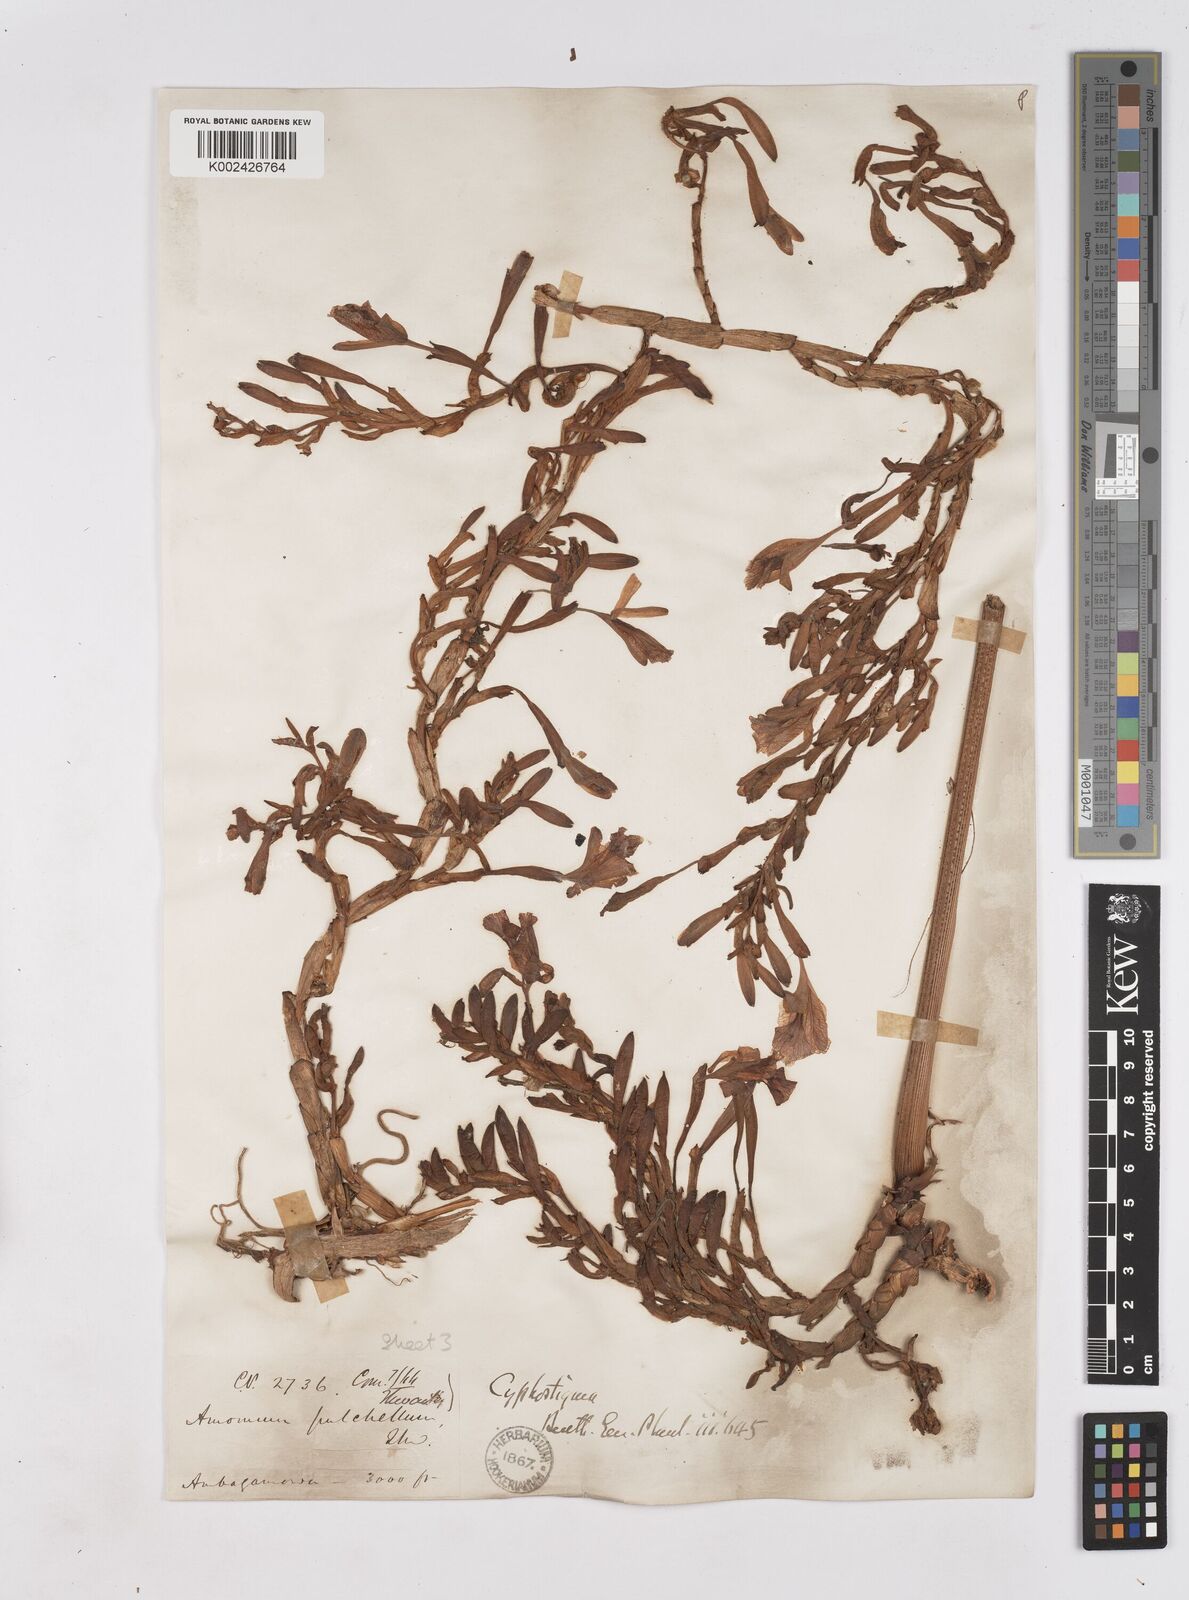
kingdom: Plantae
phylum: Tracheophyta
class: Liliopsida
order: Zingiberales
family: Zingiberaceae
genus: Cyphostigma
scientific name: Cyphostigma pulchellum
